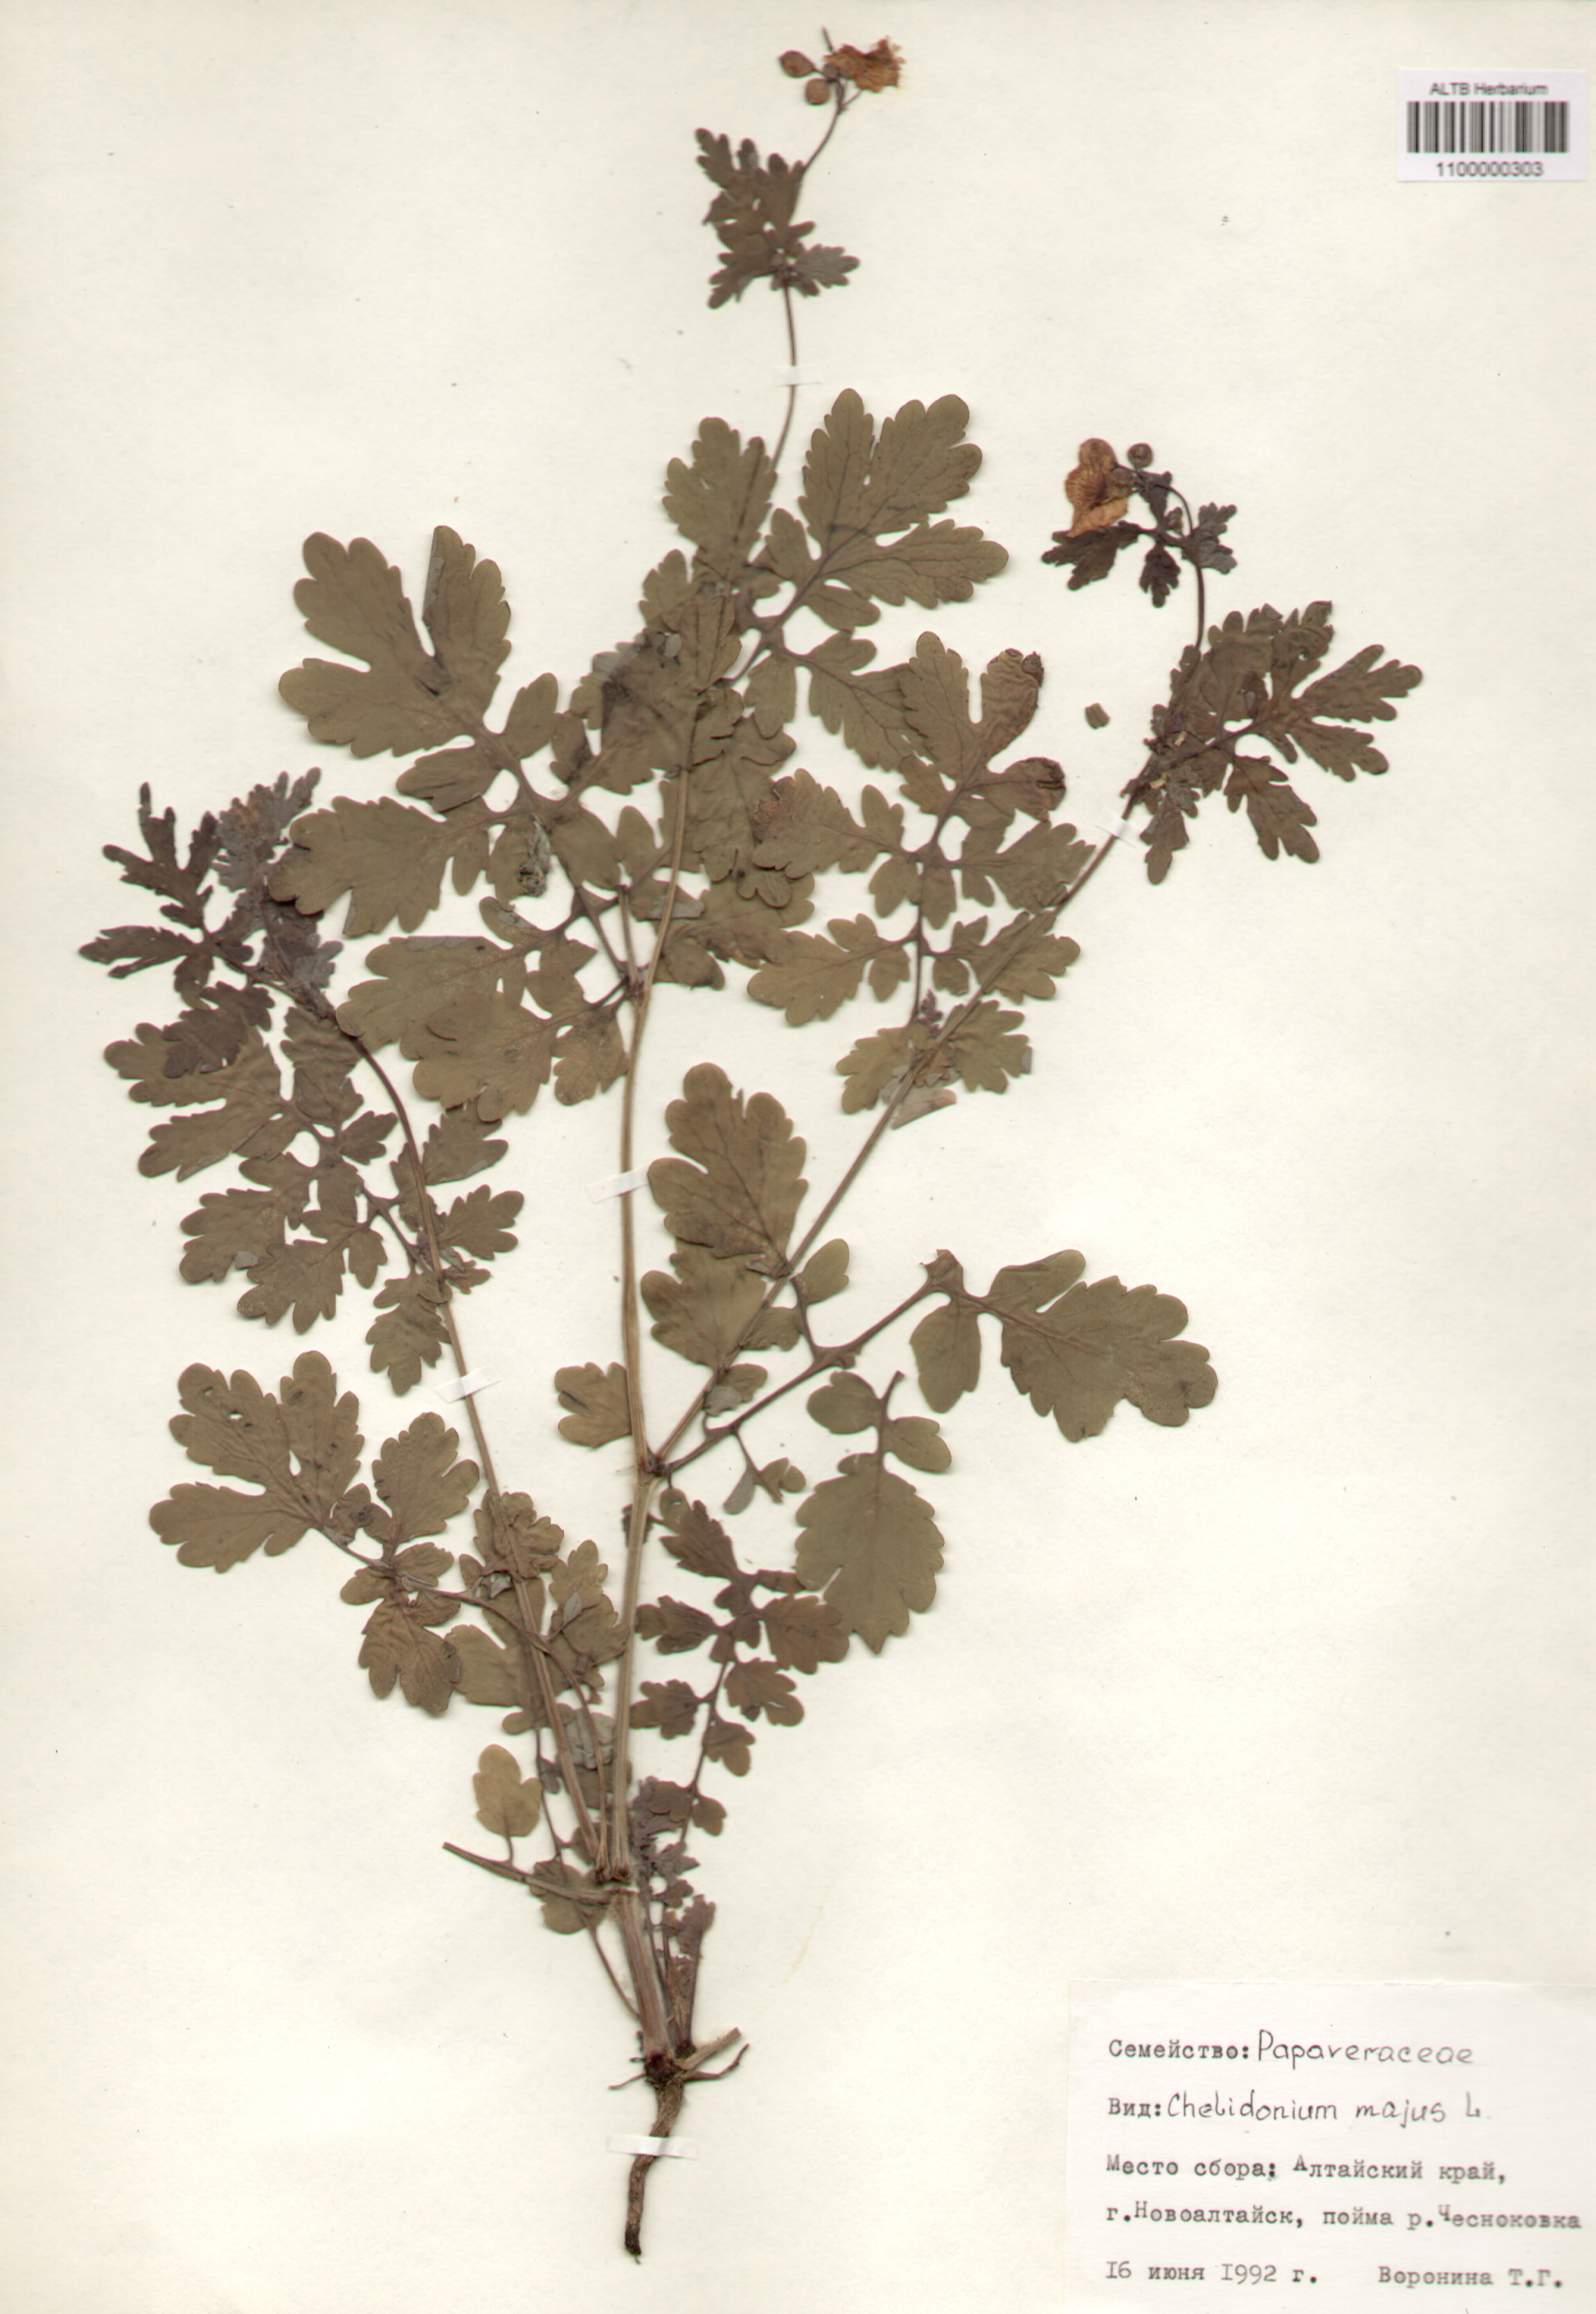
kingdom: Plantae
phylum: Tracheophyta
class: Magnoliopsida
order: Ranunculales
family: Papaveraceae
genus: Chelidonium
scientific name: Chelidonium majus
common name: Greater celandine
